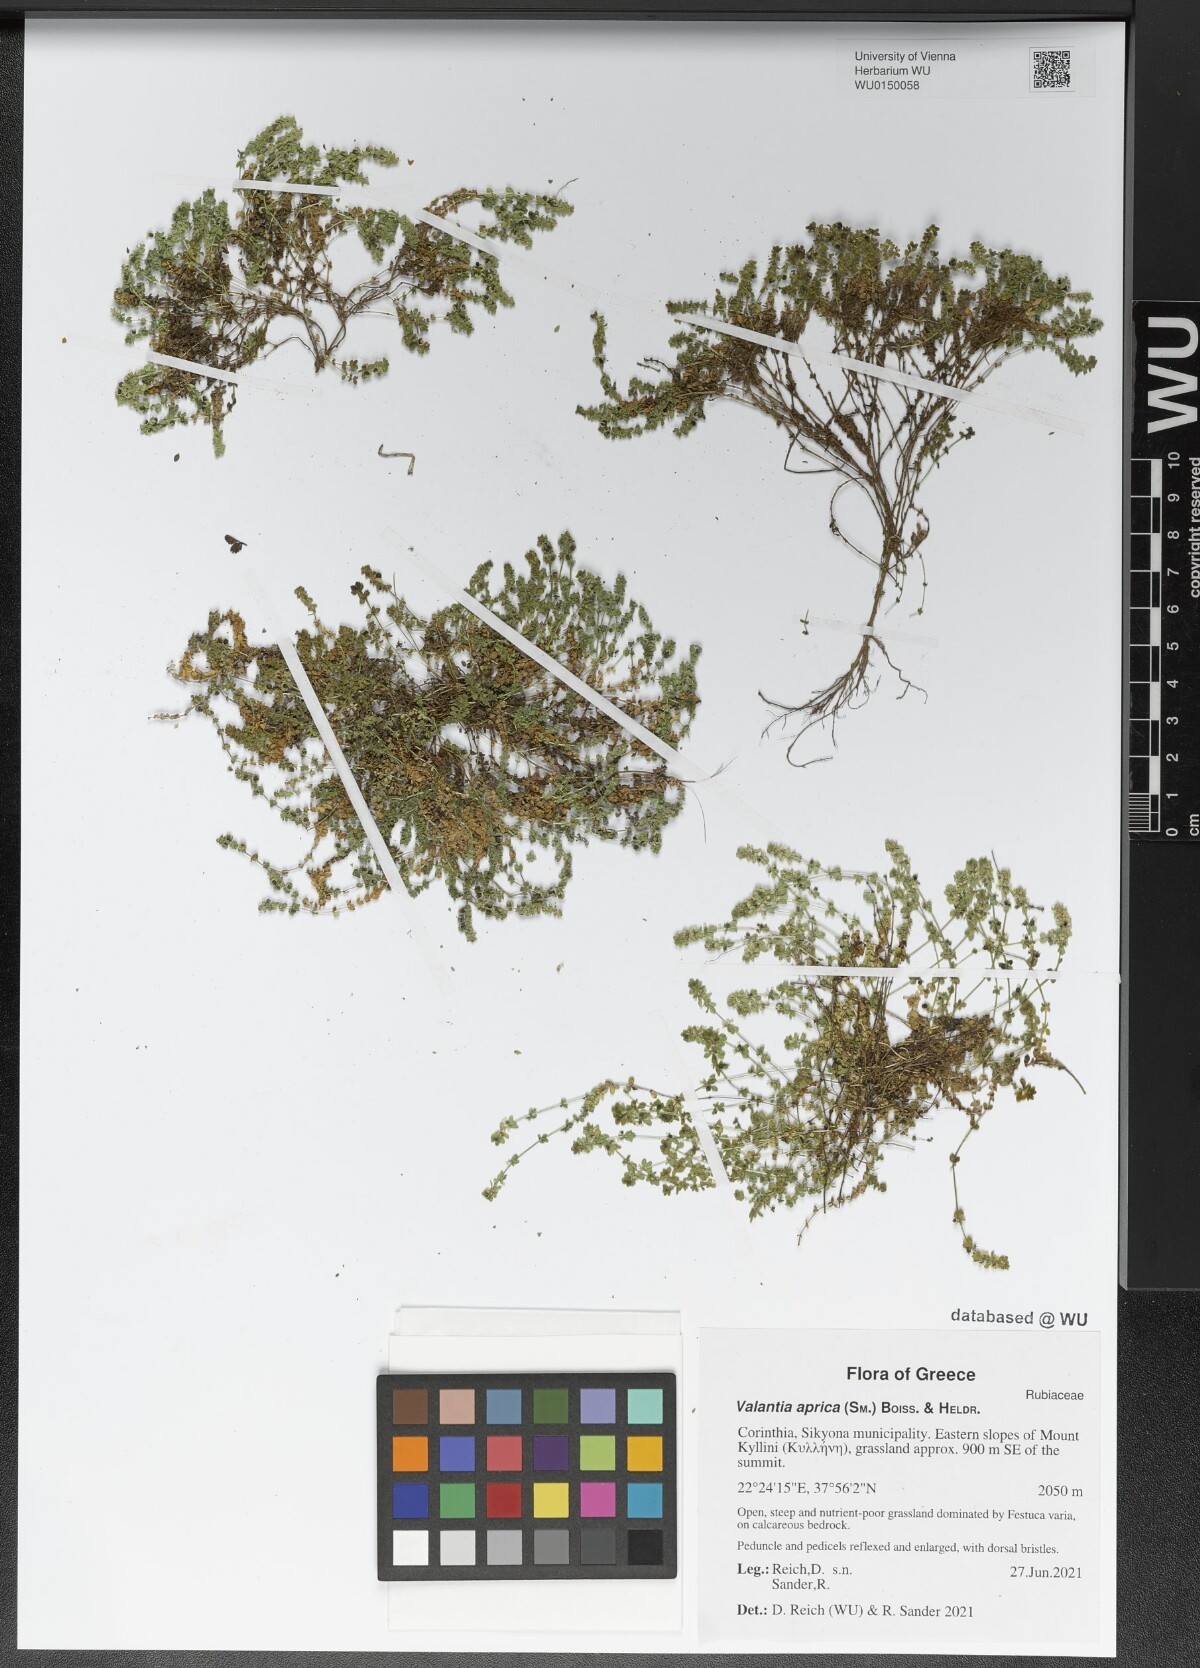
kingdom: Plantae
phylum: Tracheophyta
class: Magnoliopsida
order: Gentianales
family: Rubiaceae
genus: Valantia
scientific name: Valantia aprica
